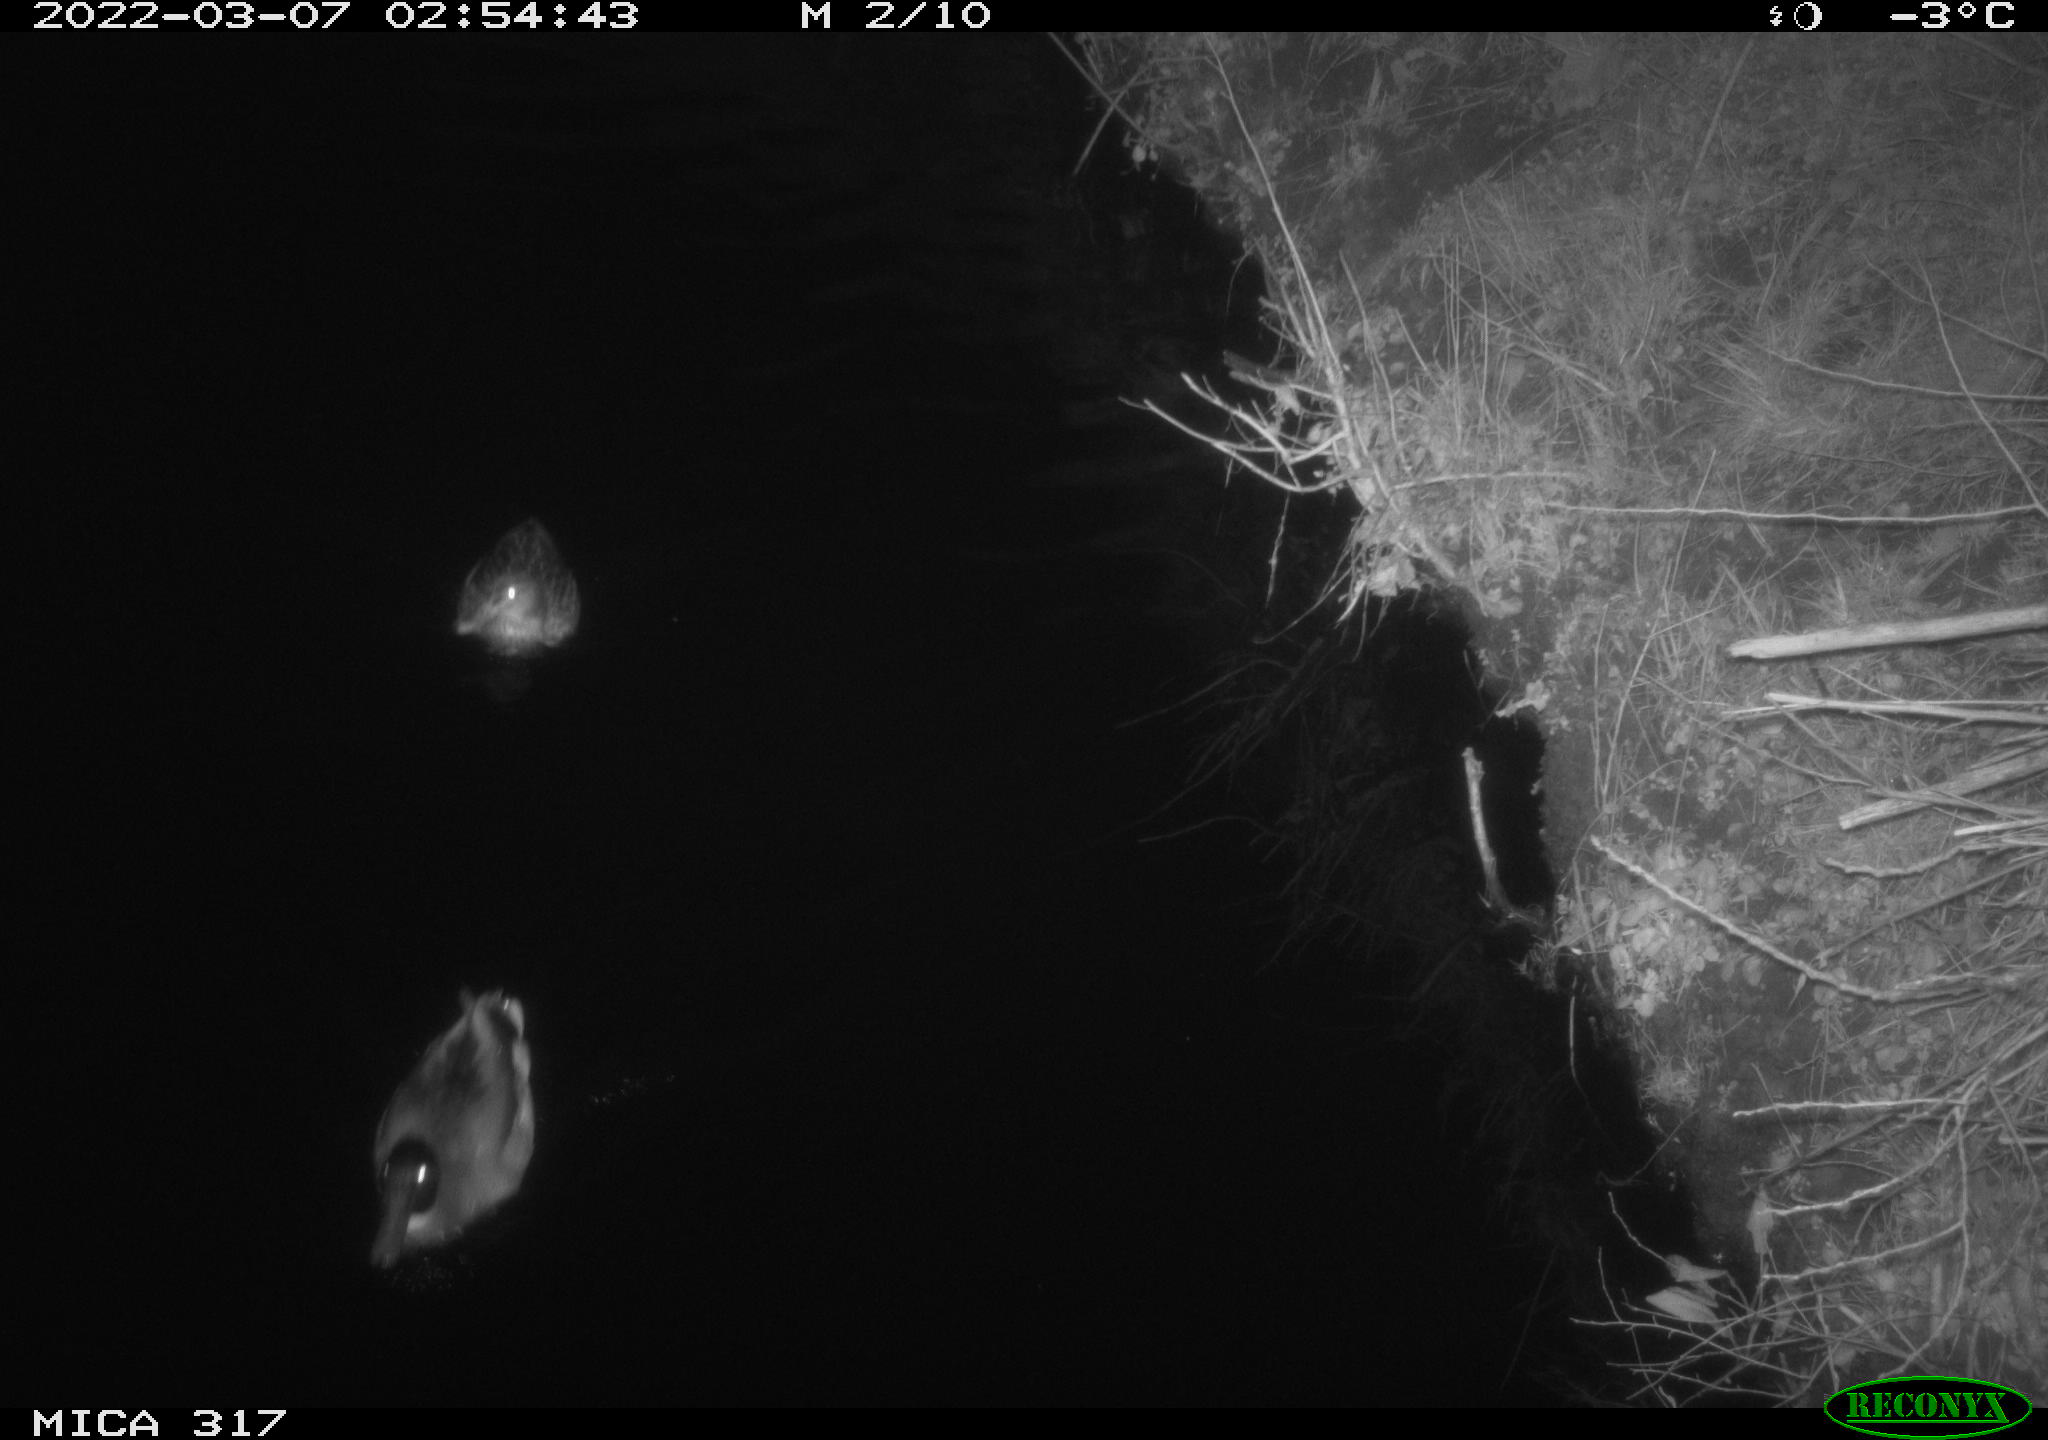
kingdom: Animalia
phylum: Chordata
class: Aves
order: Anseriformes
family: Anatidae
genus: Anas
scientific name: Anas platyrhynchos
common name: Mallard
